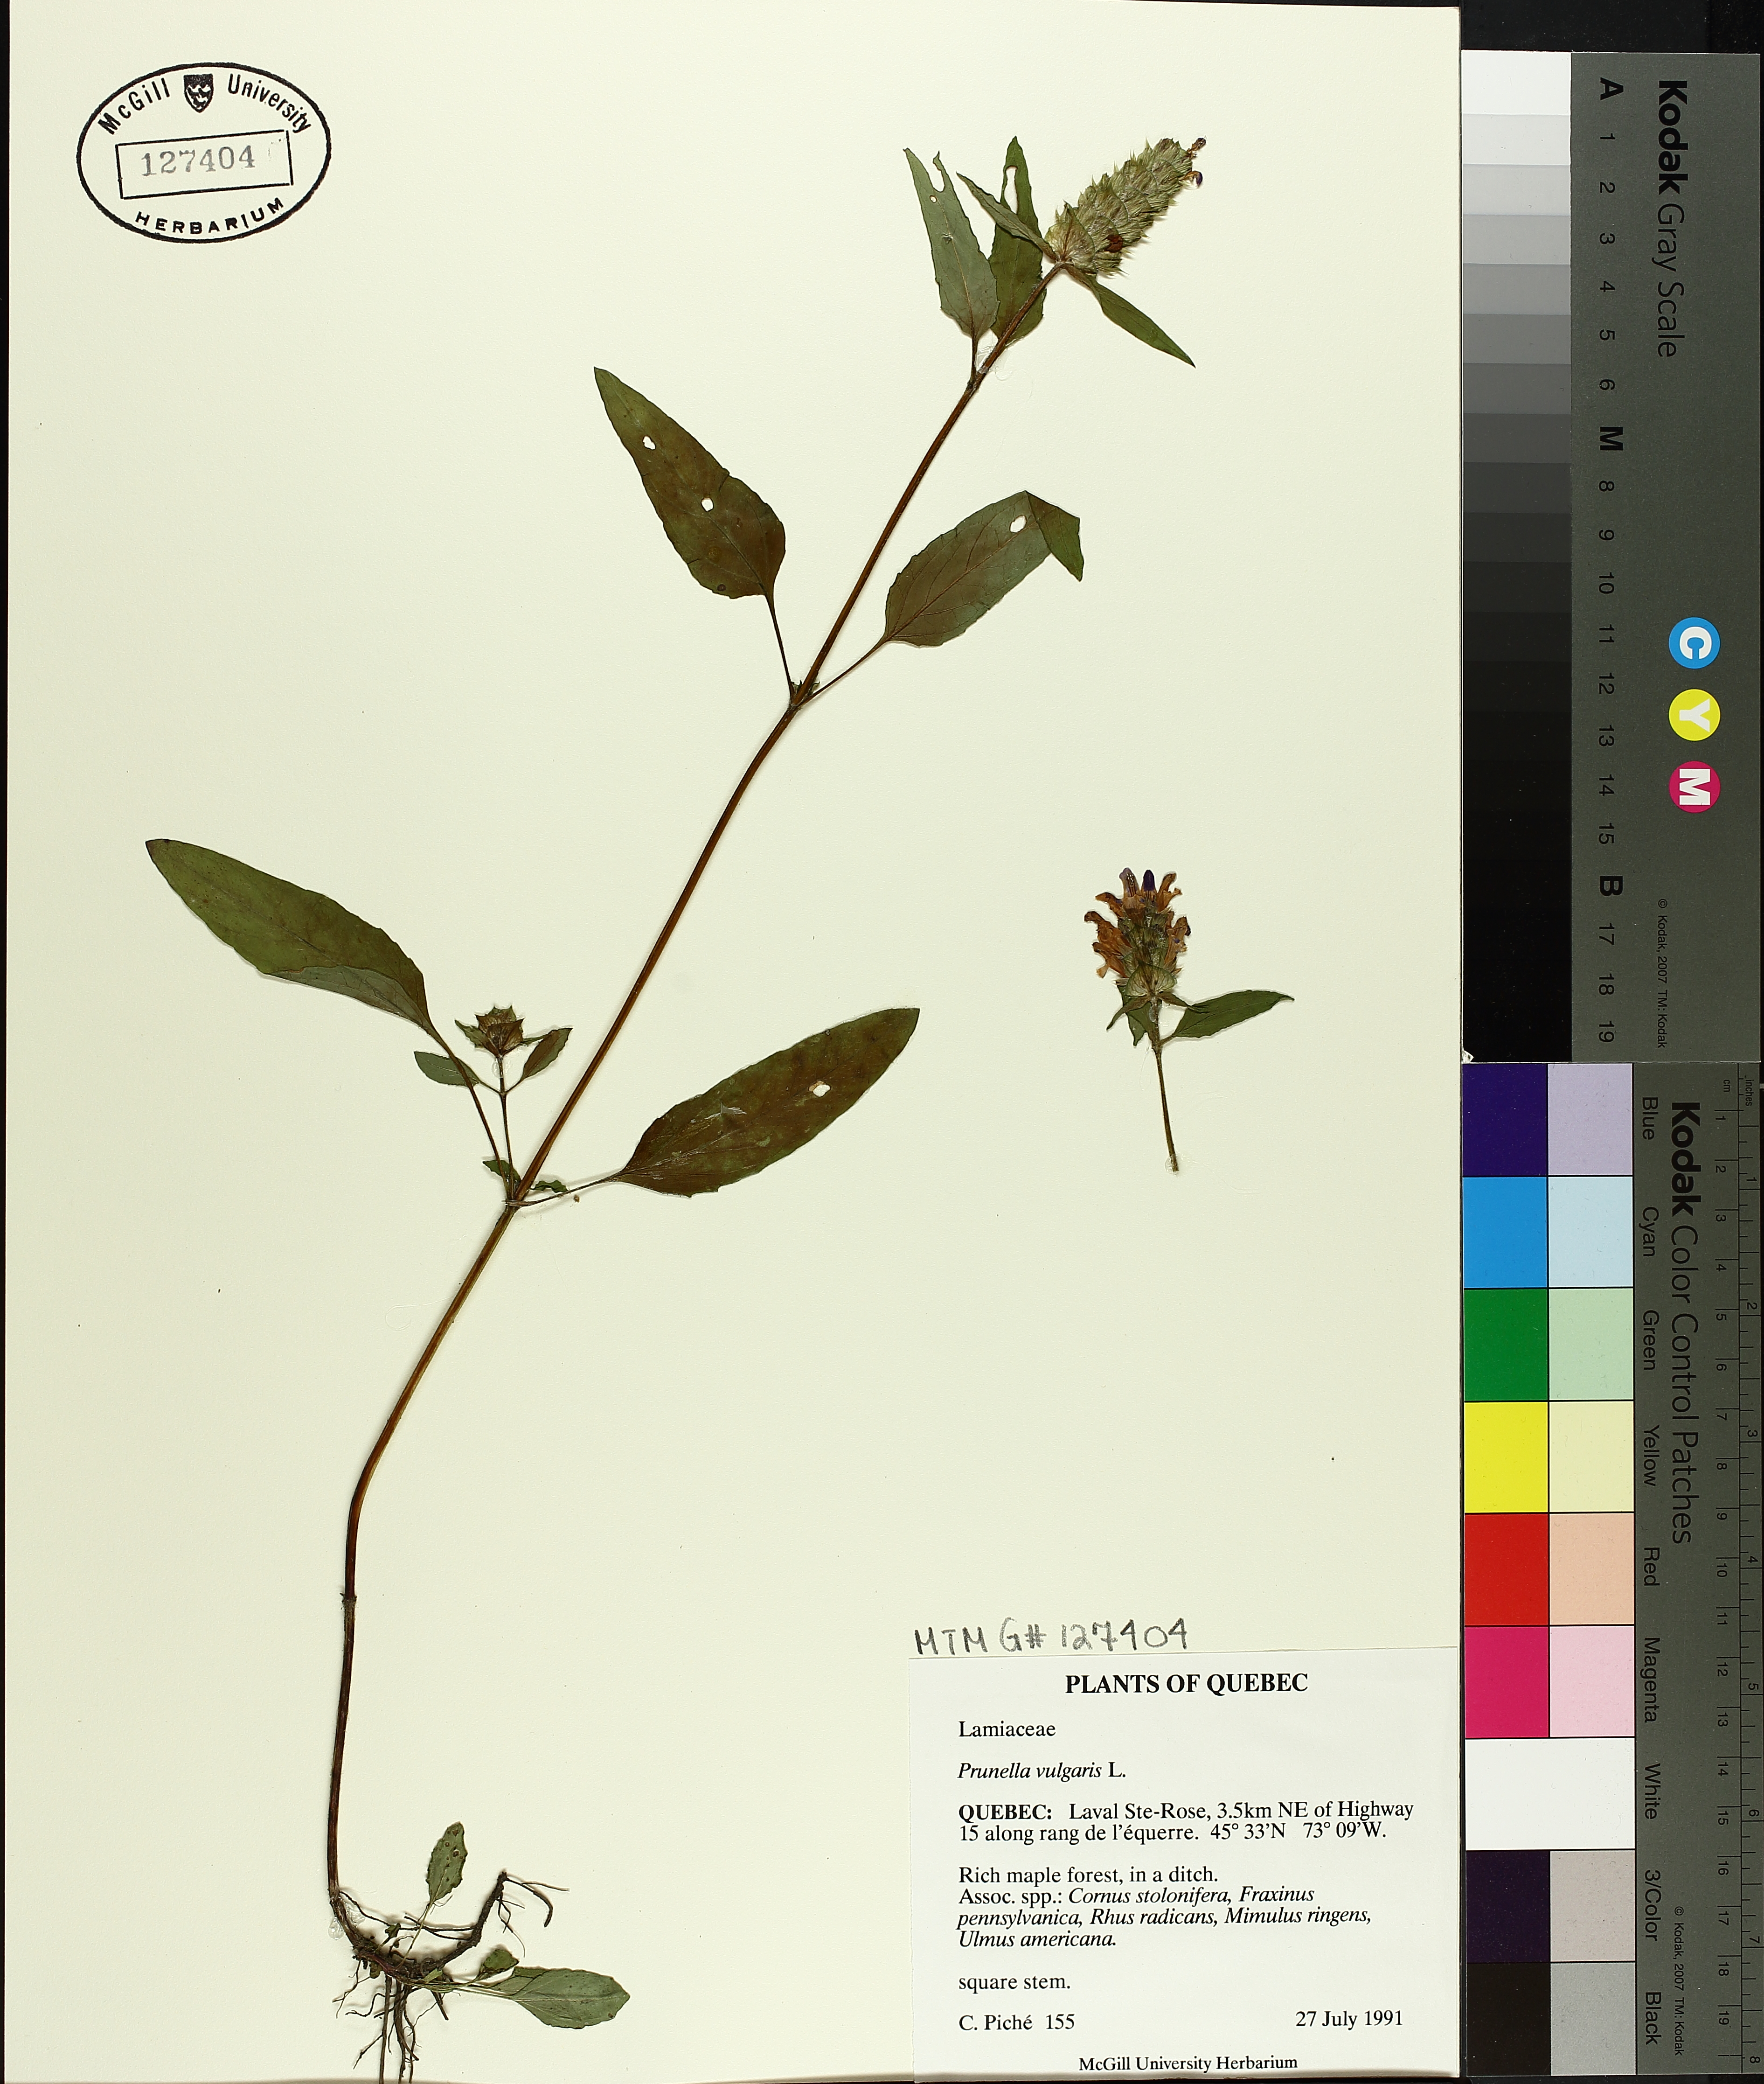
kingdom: Plantae
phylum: Tracheophyta
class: Magnoliopsida
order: Lamiales
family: Lamiaceae
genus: Prunella
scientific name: Prunella vulgaris
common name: Heal-all
